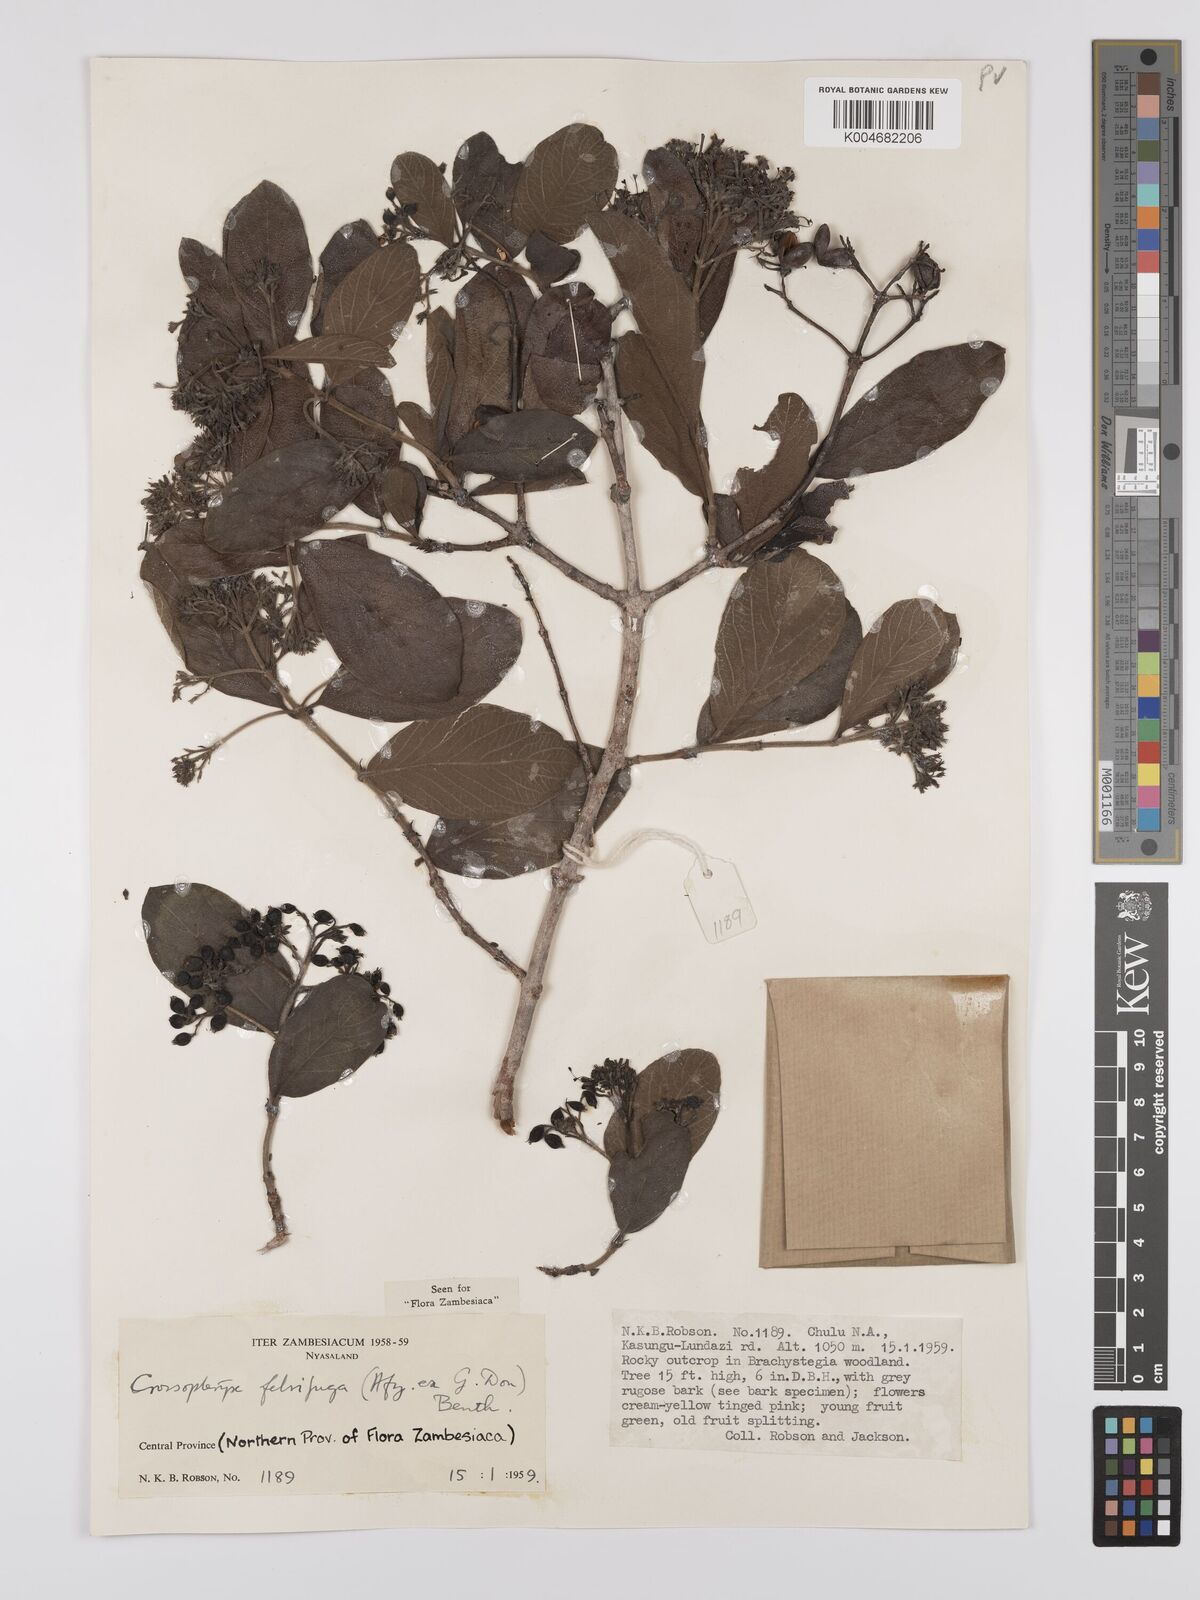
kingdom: Plantae
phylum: Tracheophyta
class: Magnoliopsida
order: Gentianales
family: Rubiaceae
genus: Crossopteryx
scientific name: Crossopteryx febrifuga
